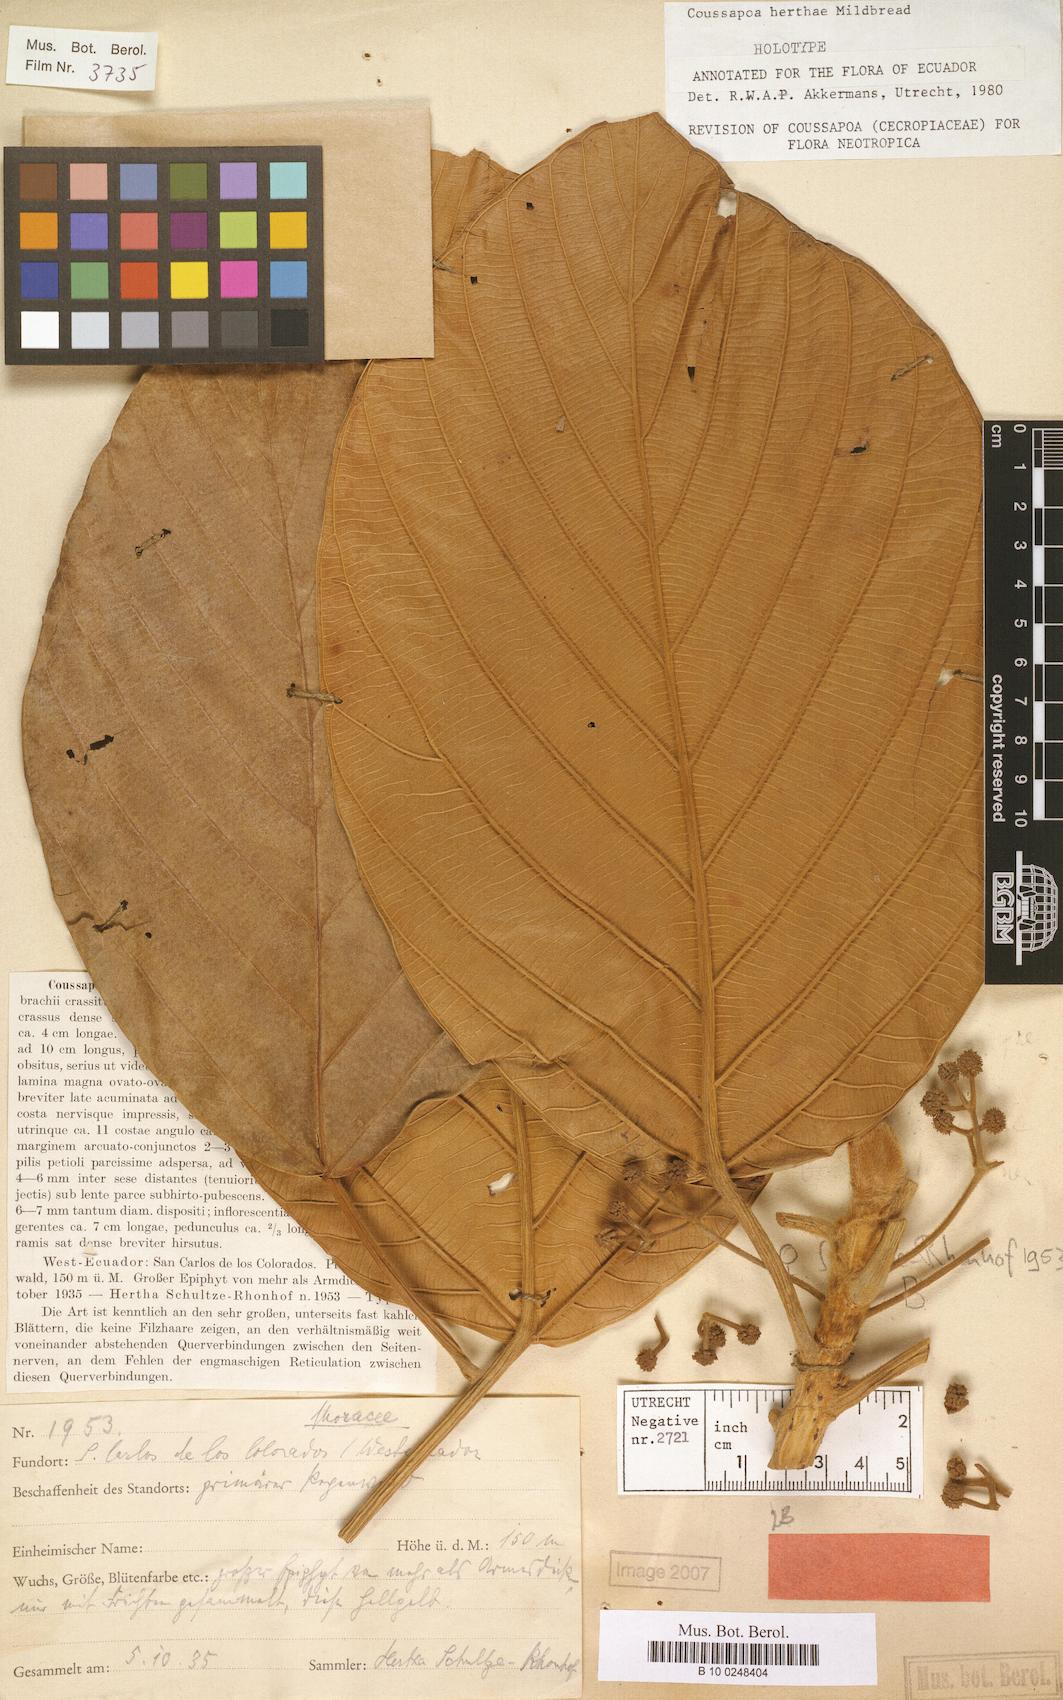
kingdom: Plantae
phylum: Tracheophyta
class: Magnoliopsida
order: Rosales
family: Urticaceae
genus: Coussapoa
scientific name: Coussapoa herthae
